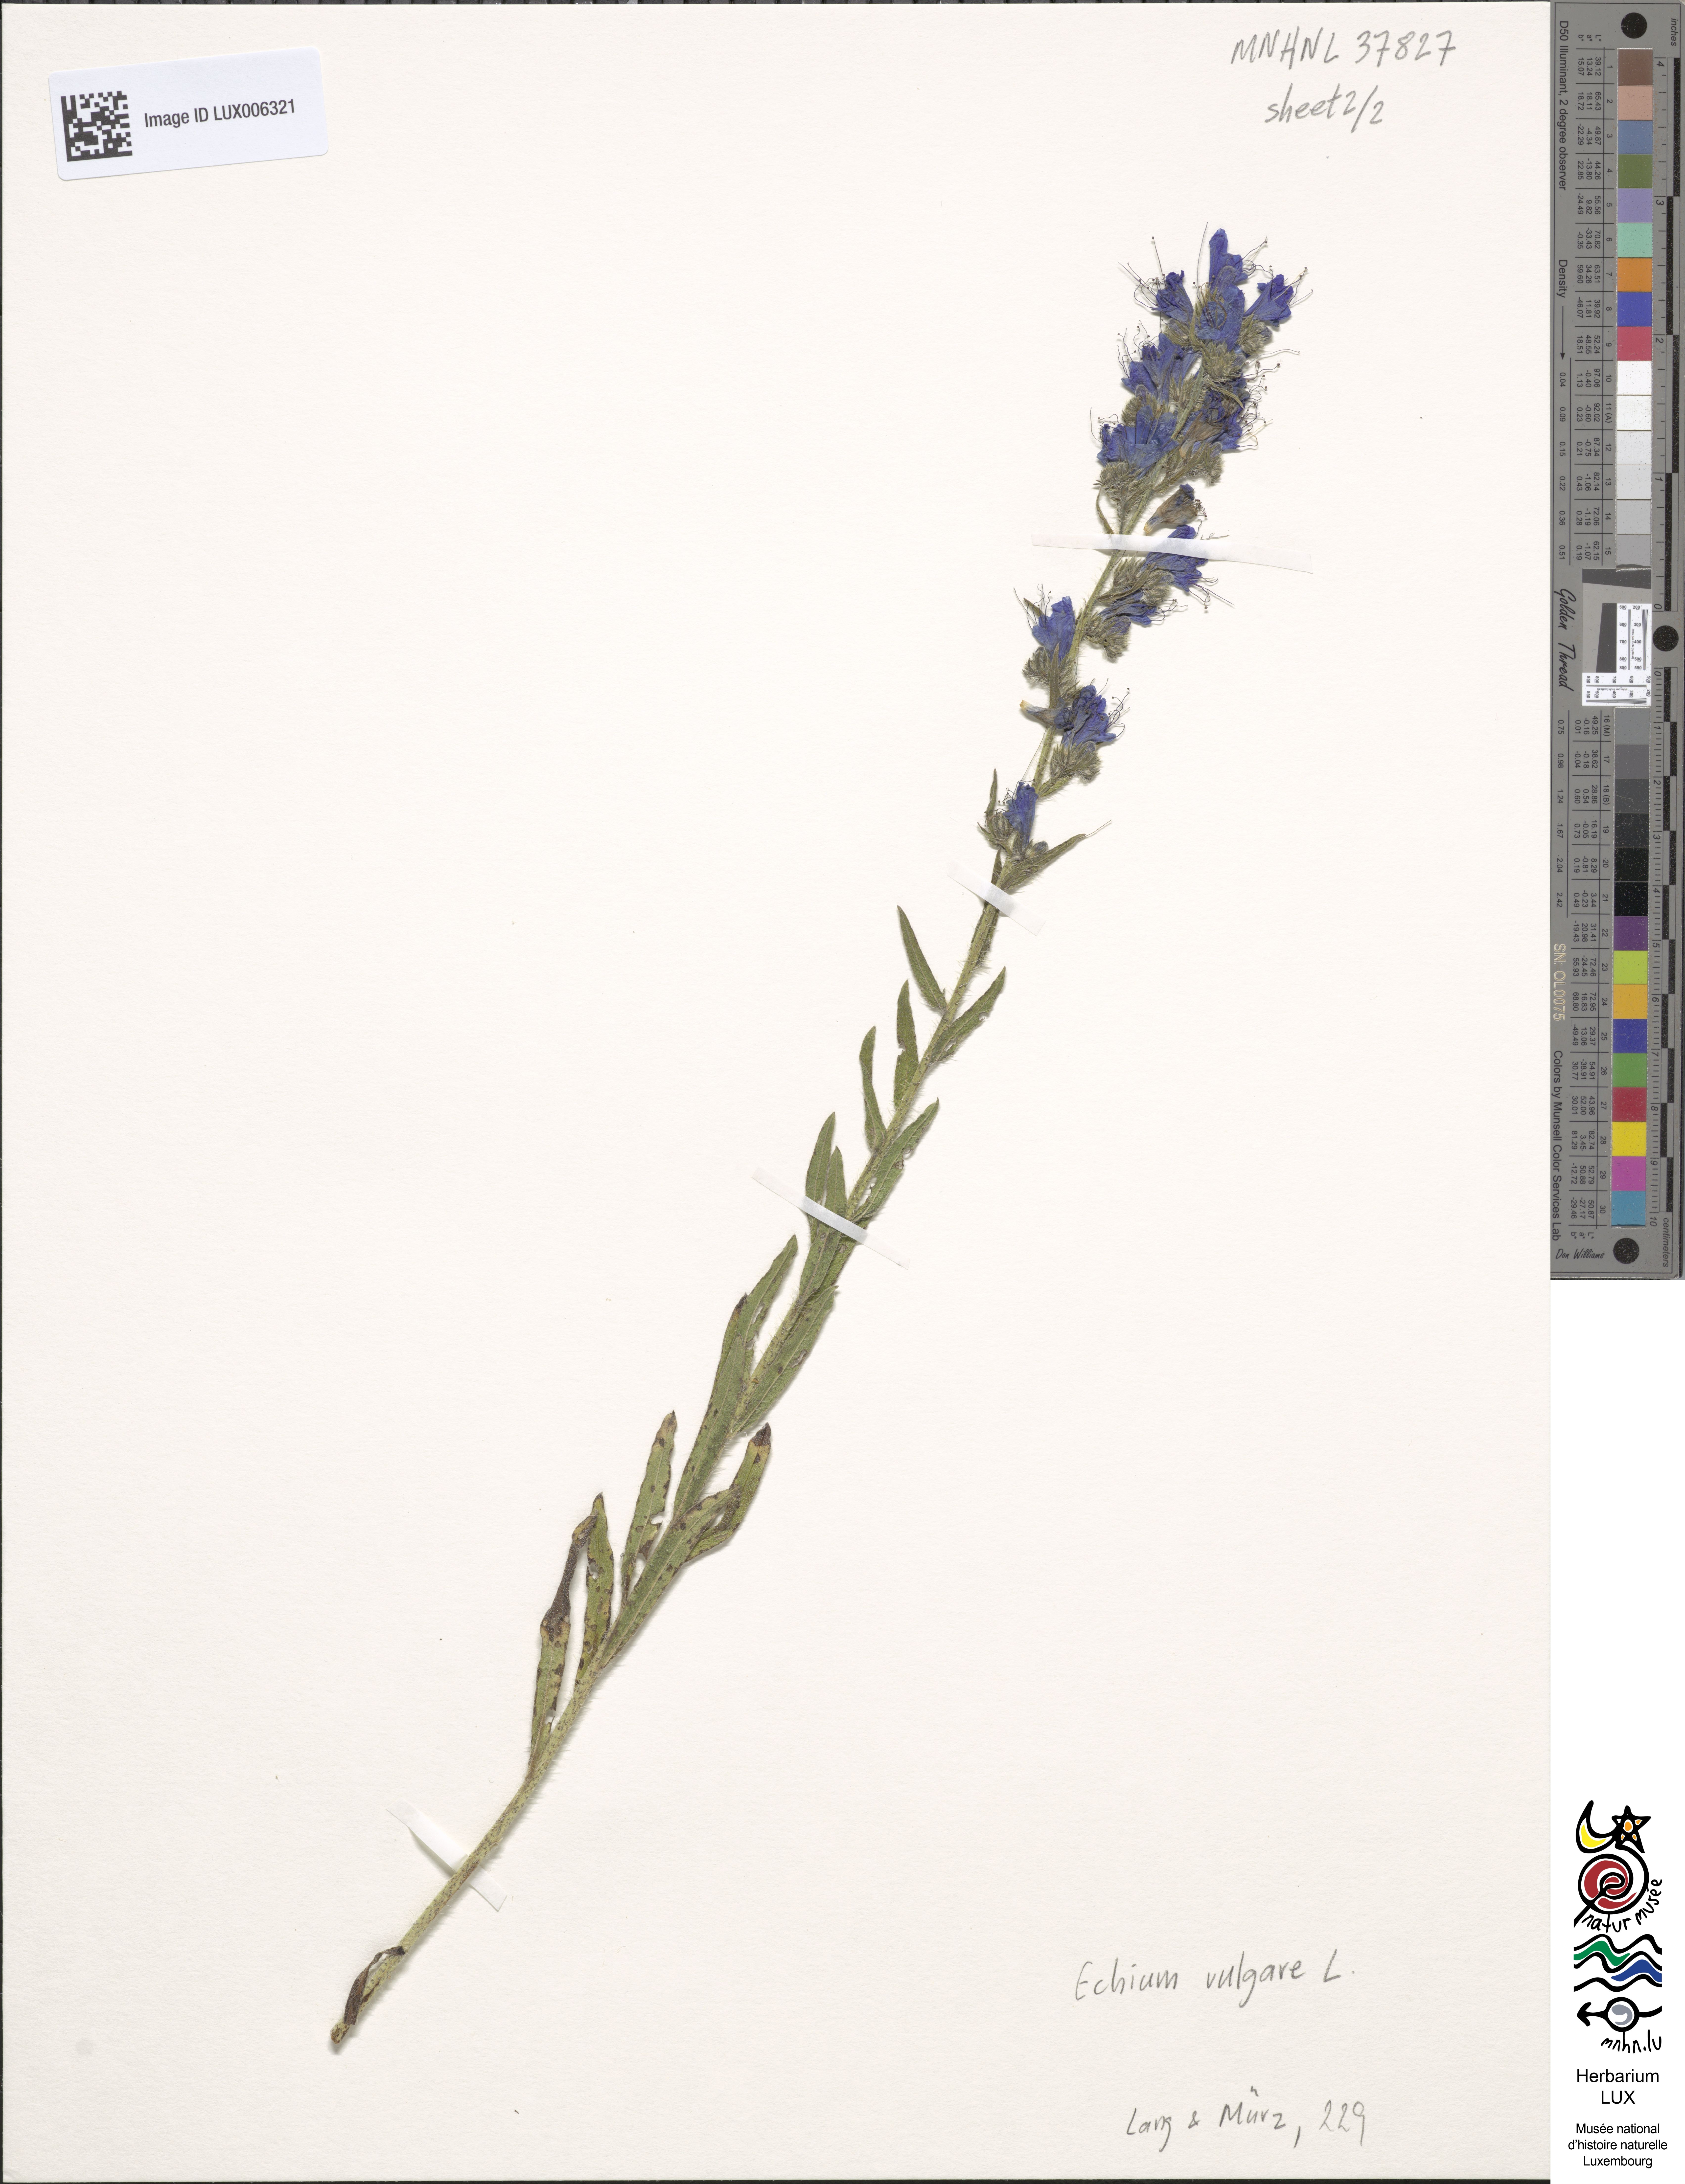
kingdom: Plantae
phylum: Tracheophyta
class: Magnoliopsida
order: Boraginales
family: Boraginaceae
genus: Echium
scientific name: Echium vulgare
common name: Common viper's bugloss
